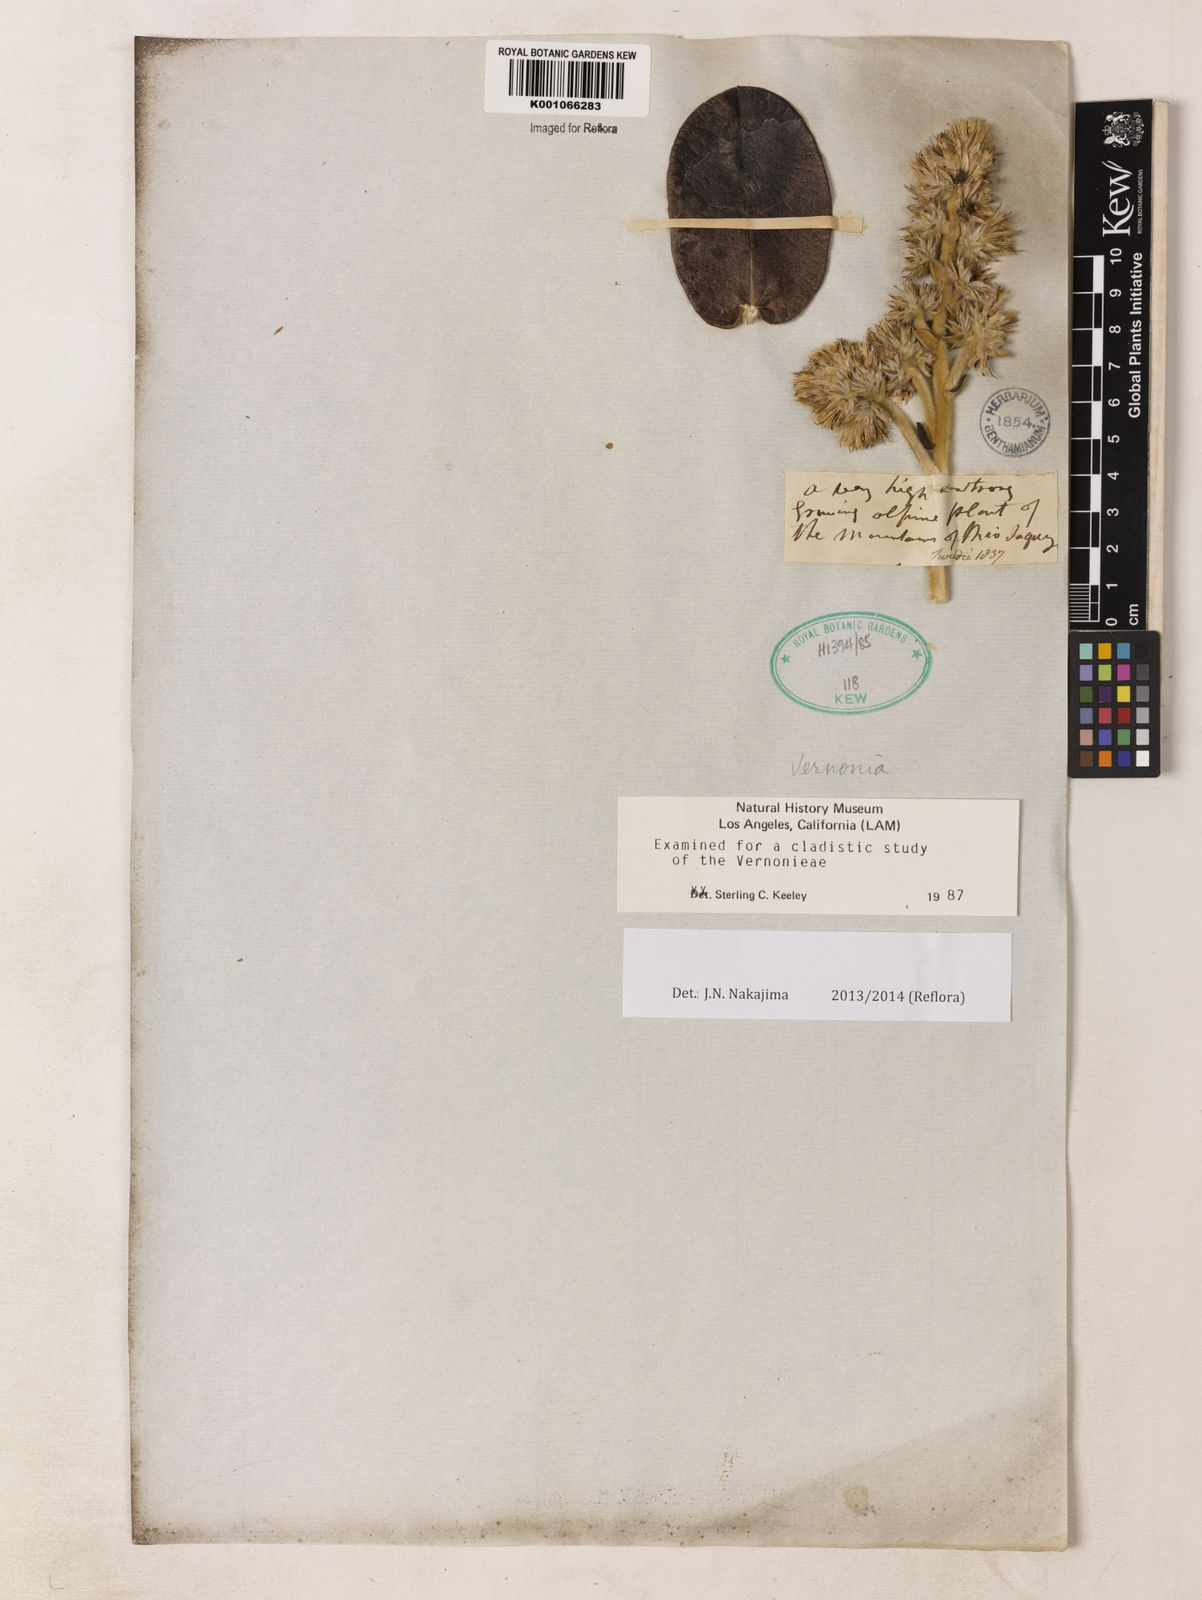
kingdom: Plantae
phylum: Tracheophyta
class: Magnoliopsida
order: Asterales
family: Asteraceae
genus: Lepidaploa
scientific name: Lepidaploa barbata
